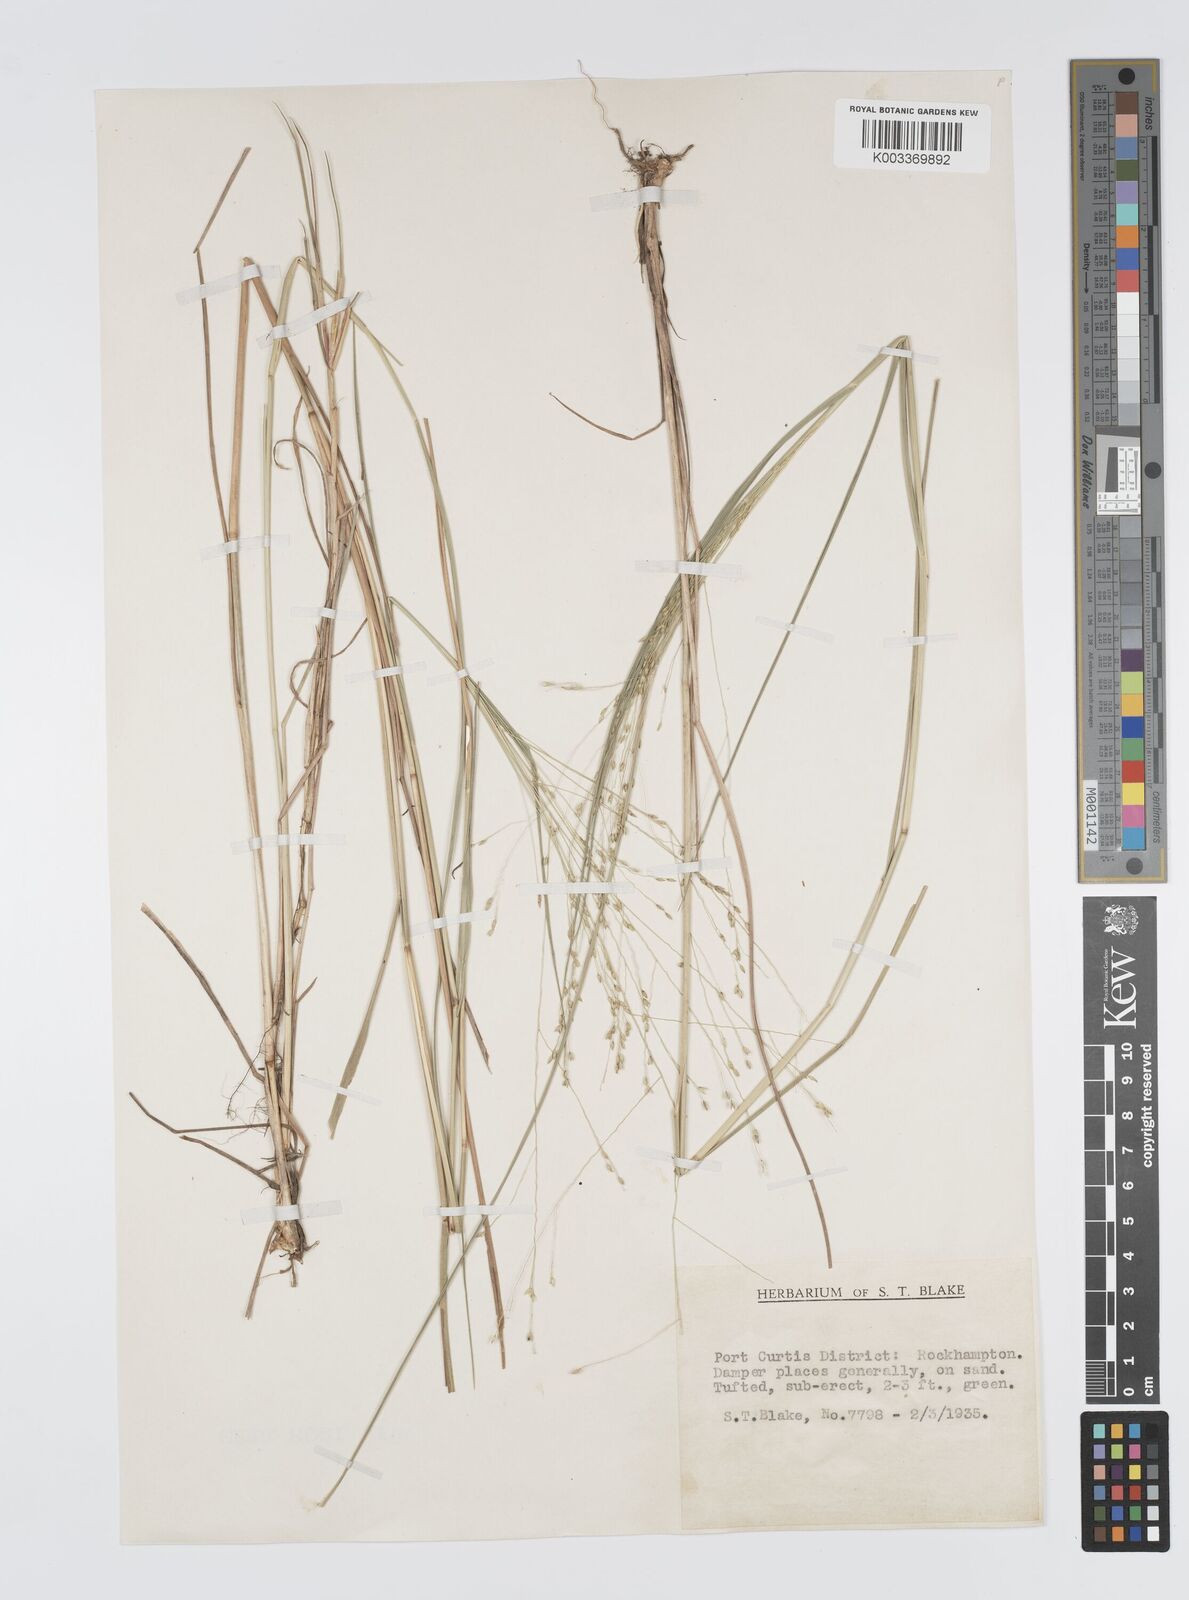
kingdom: Plantae
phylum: Tracheophyta
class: Liliopsida
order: Poales
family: Poaceae
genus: Panicum
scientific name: Panicum mitchellii
